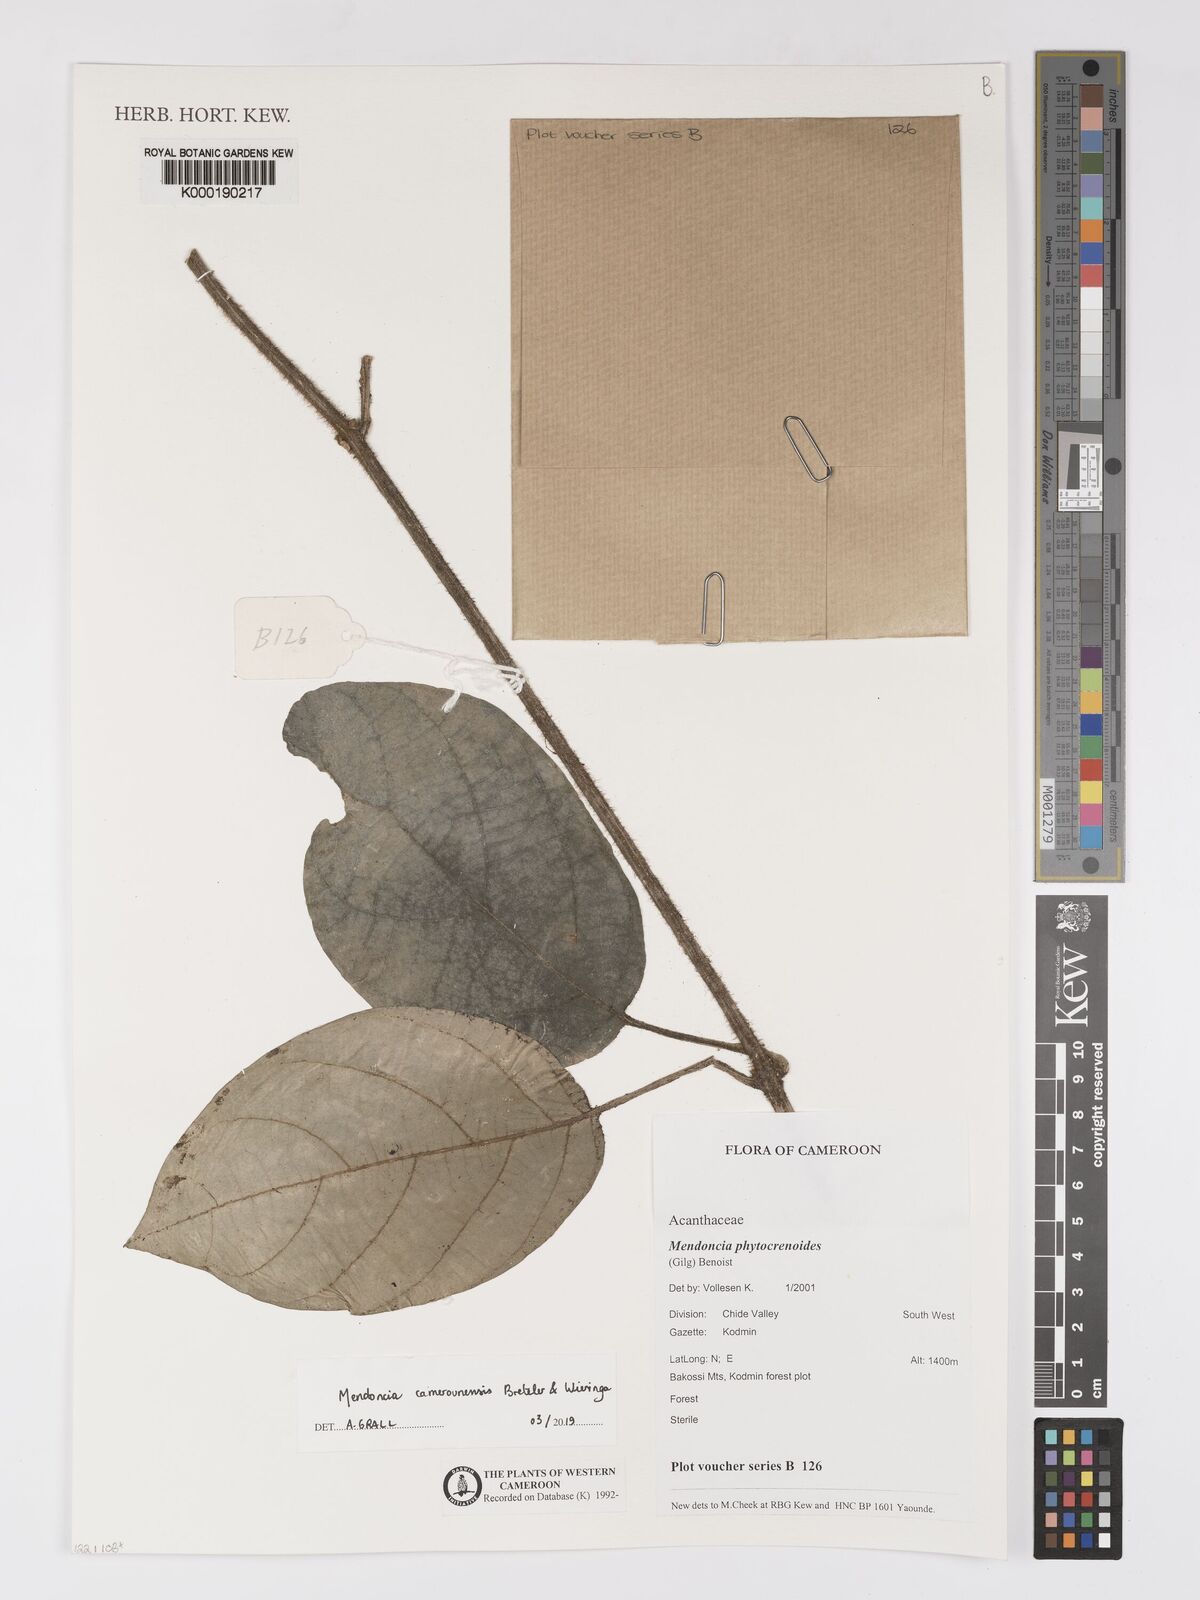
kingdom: Plantae
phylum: Tracheophyta
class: Magnoliopsida
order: Lamiales
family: Acanthaceae
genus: Mendoncia
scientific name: Mendoncia phytocrenoides
